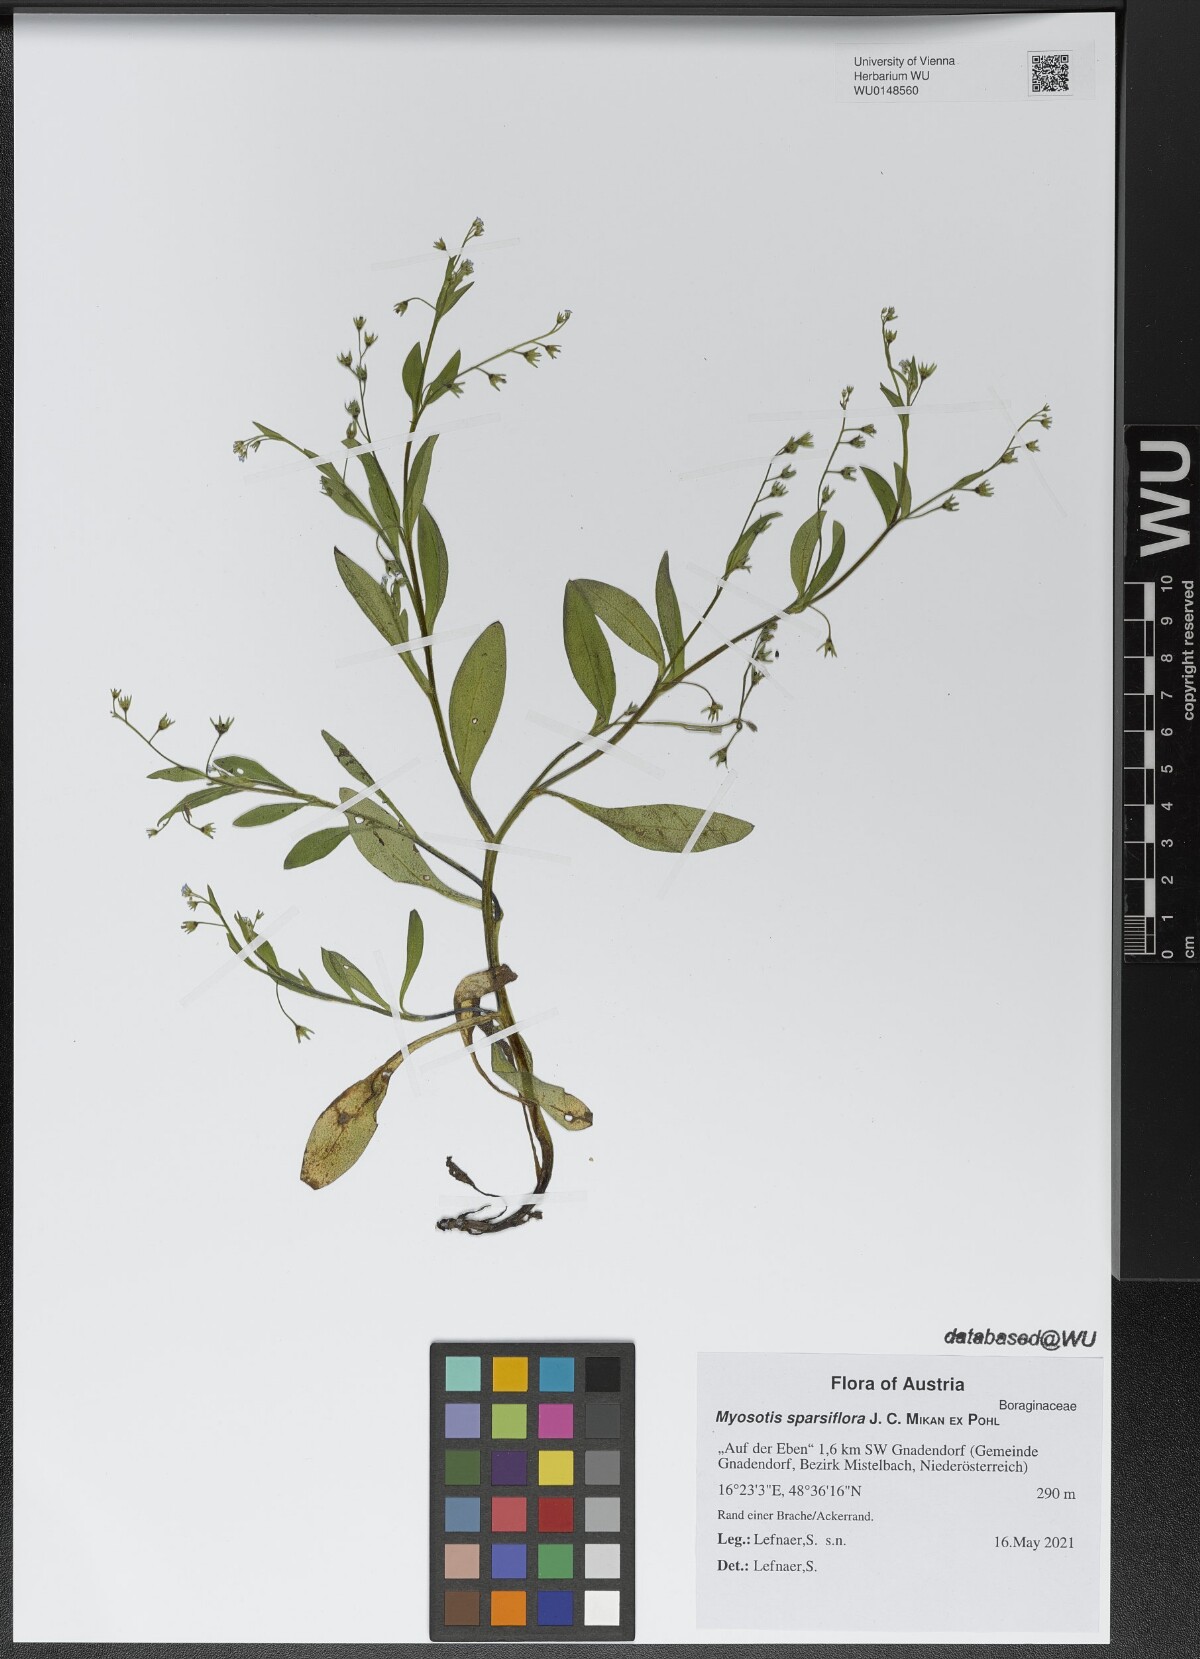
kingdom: Plantae
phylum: Tracheophyta
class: Magnoliopsida
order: Boraginales
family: Boraginaceae
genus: Myosotis
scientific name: Myosotis sparsiflora
